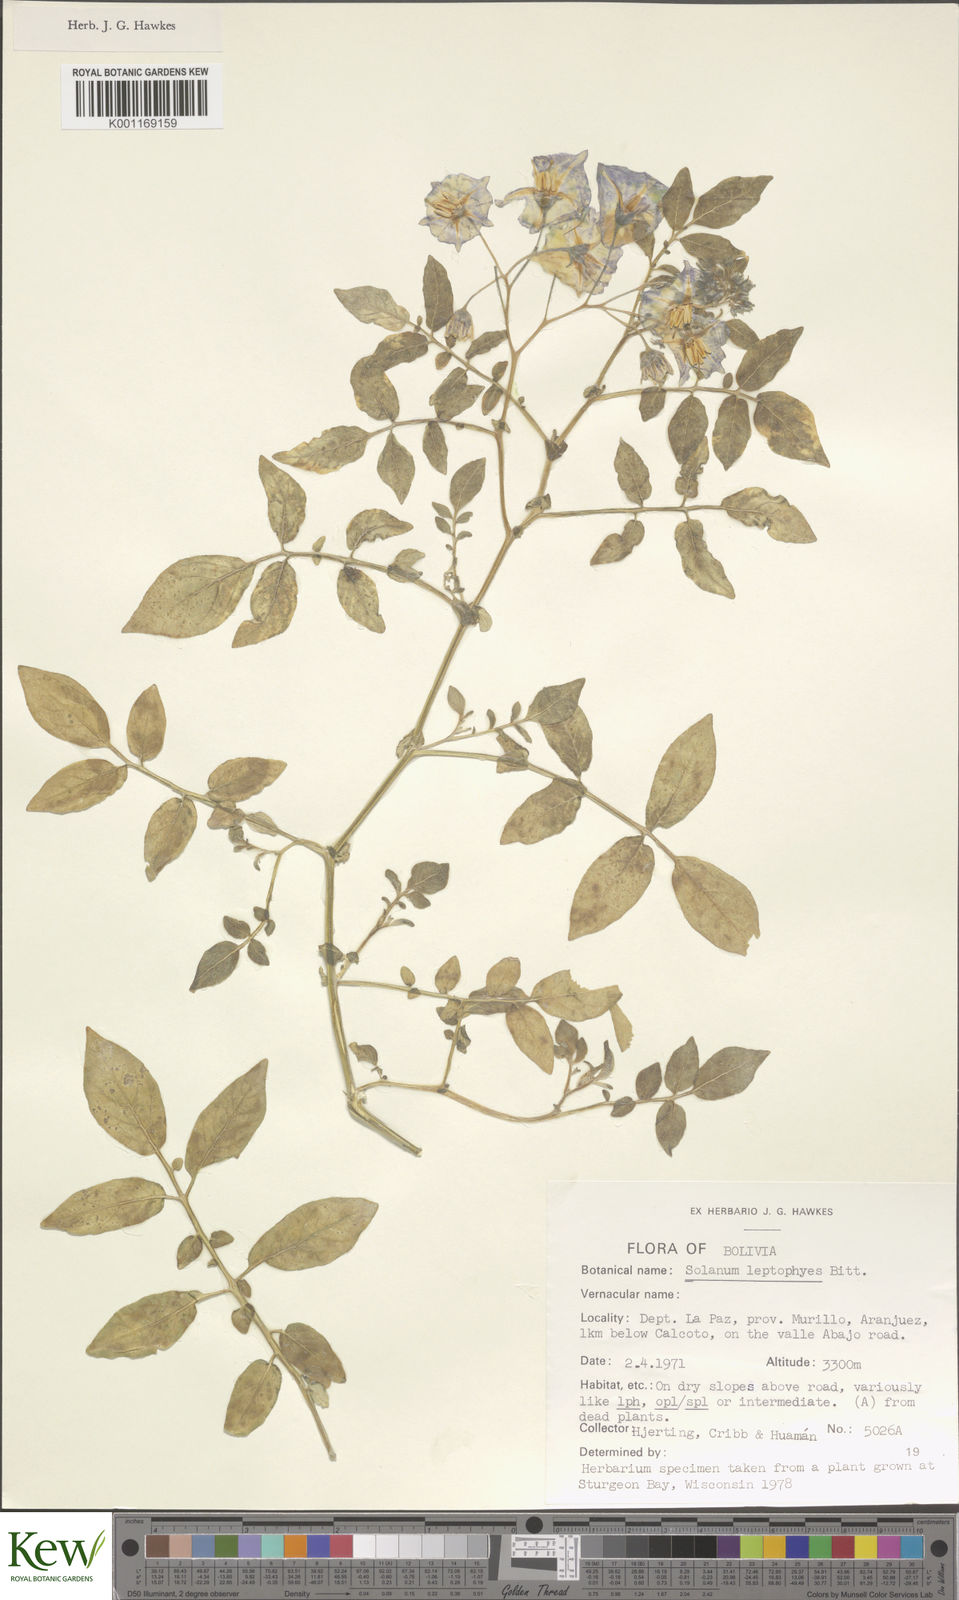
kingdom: Plantae
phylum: Tracheophyta
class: Magnoliopsida
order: Solanales
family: Solanaceae
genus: Solanum
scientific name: Solanum brevicaule
